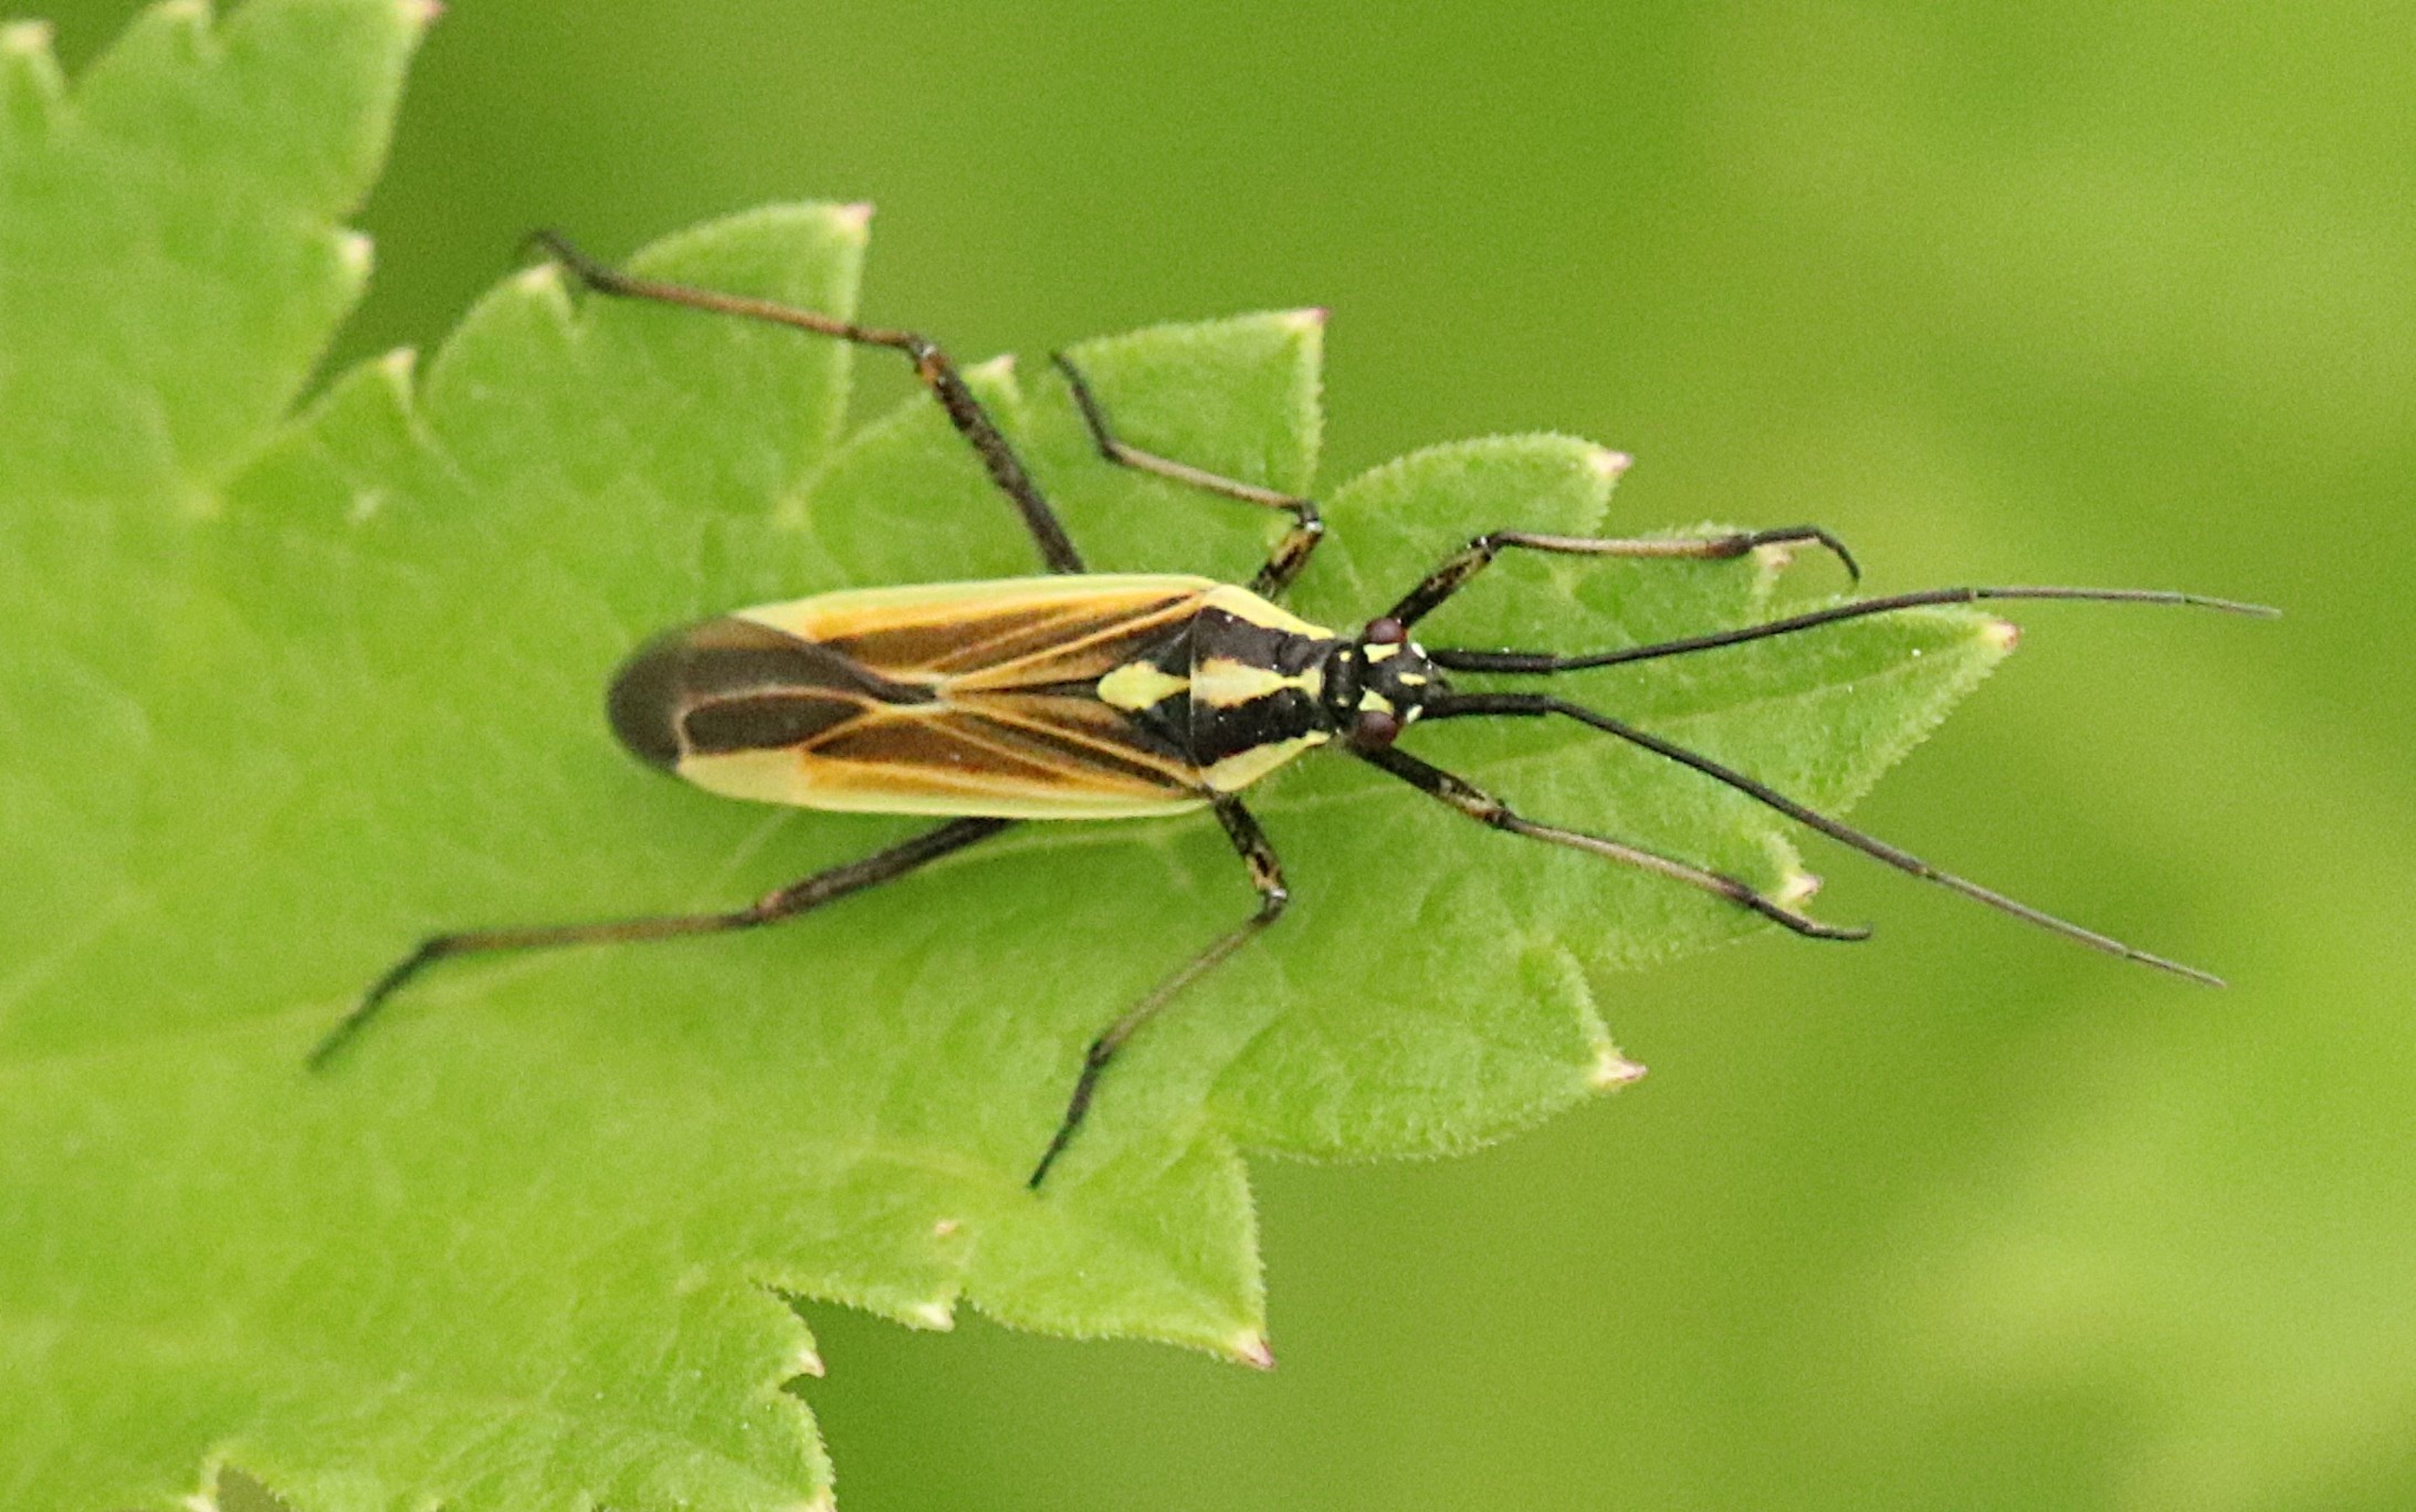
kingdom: Animalia
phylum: Arthropoda
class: Insecta
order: Hemiptera
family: Miridae
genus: Leptopterna
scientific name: Leptopterna dolabrata
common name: Almindelig græstæge
